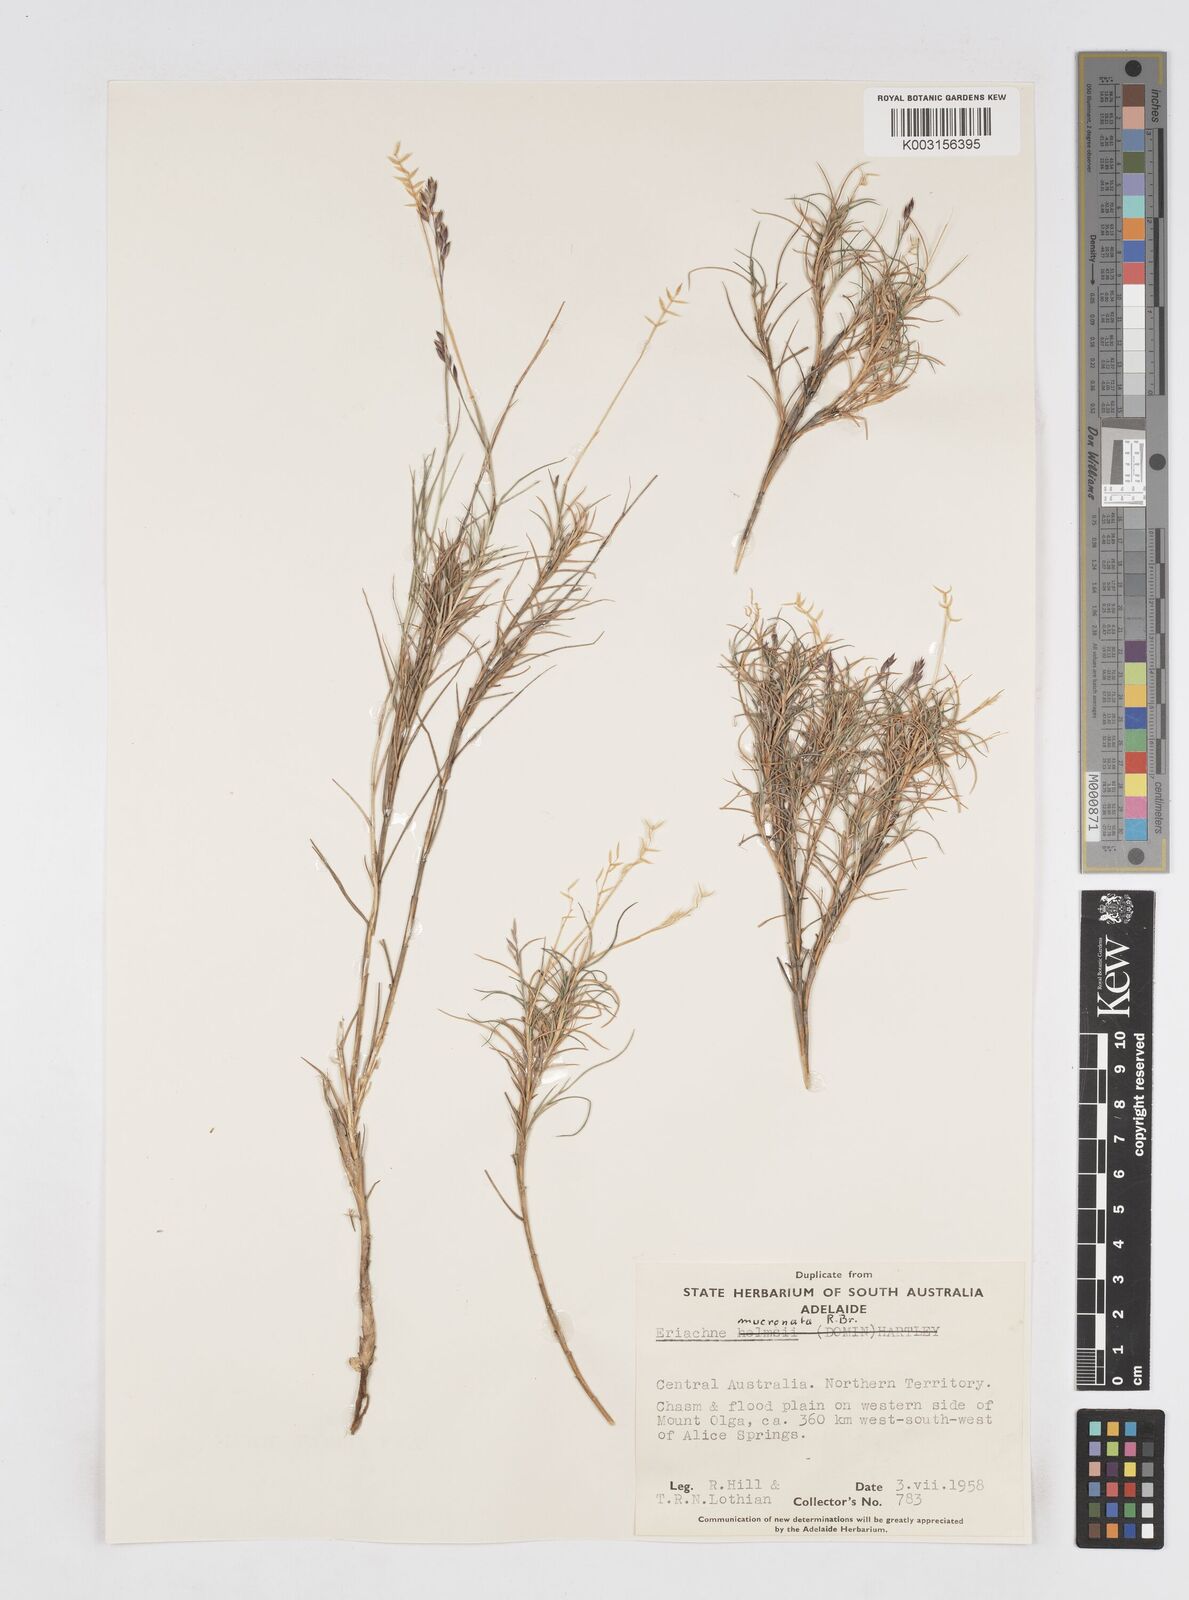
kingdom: Plantae
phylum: Tracheophyta
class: Liliopsida
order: Poales
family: Poaceae
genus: Eriachne
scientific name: Eriachne mucronata
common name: Mountain wanderrie grass
